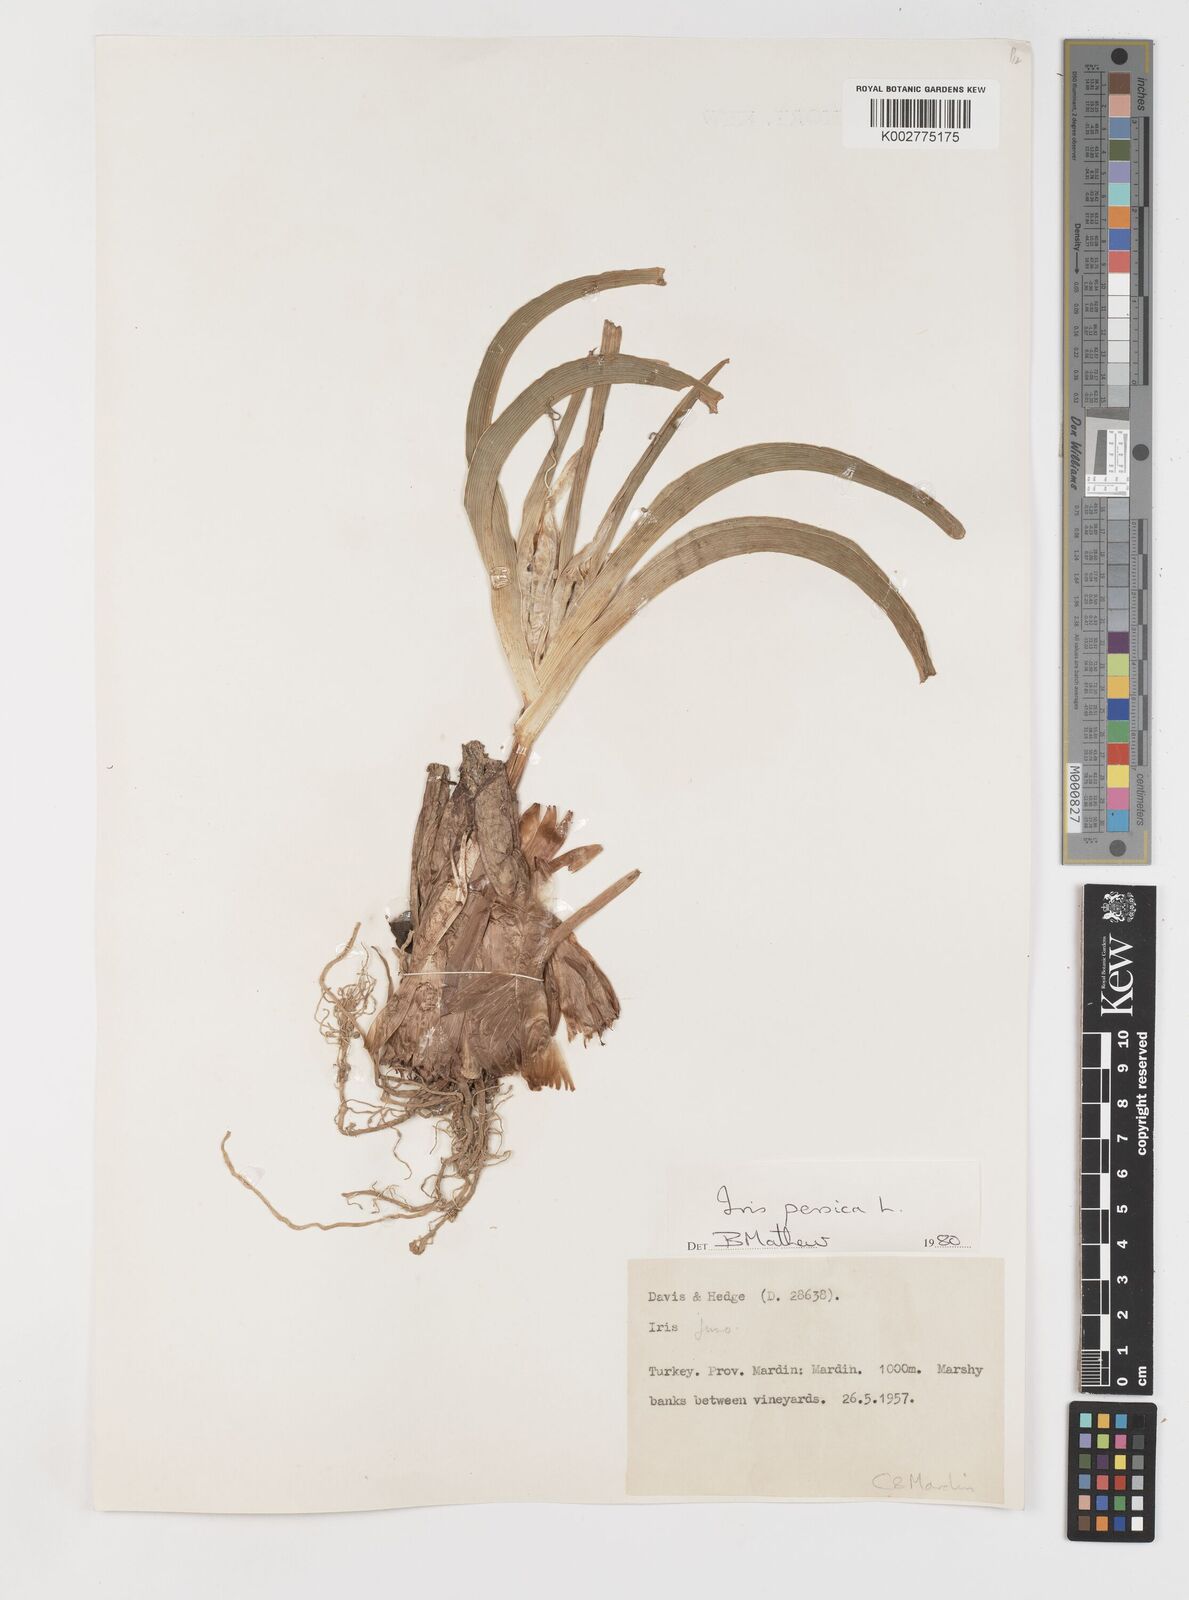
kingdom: Plantae
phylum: Tracheophyta
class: Liliopsida
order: Asparagales
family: Iridaceae
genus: Iris
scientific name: Iris persica
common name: Persian iris
